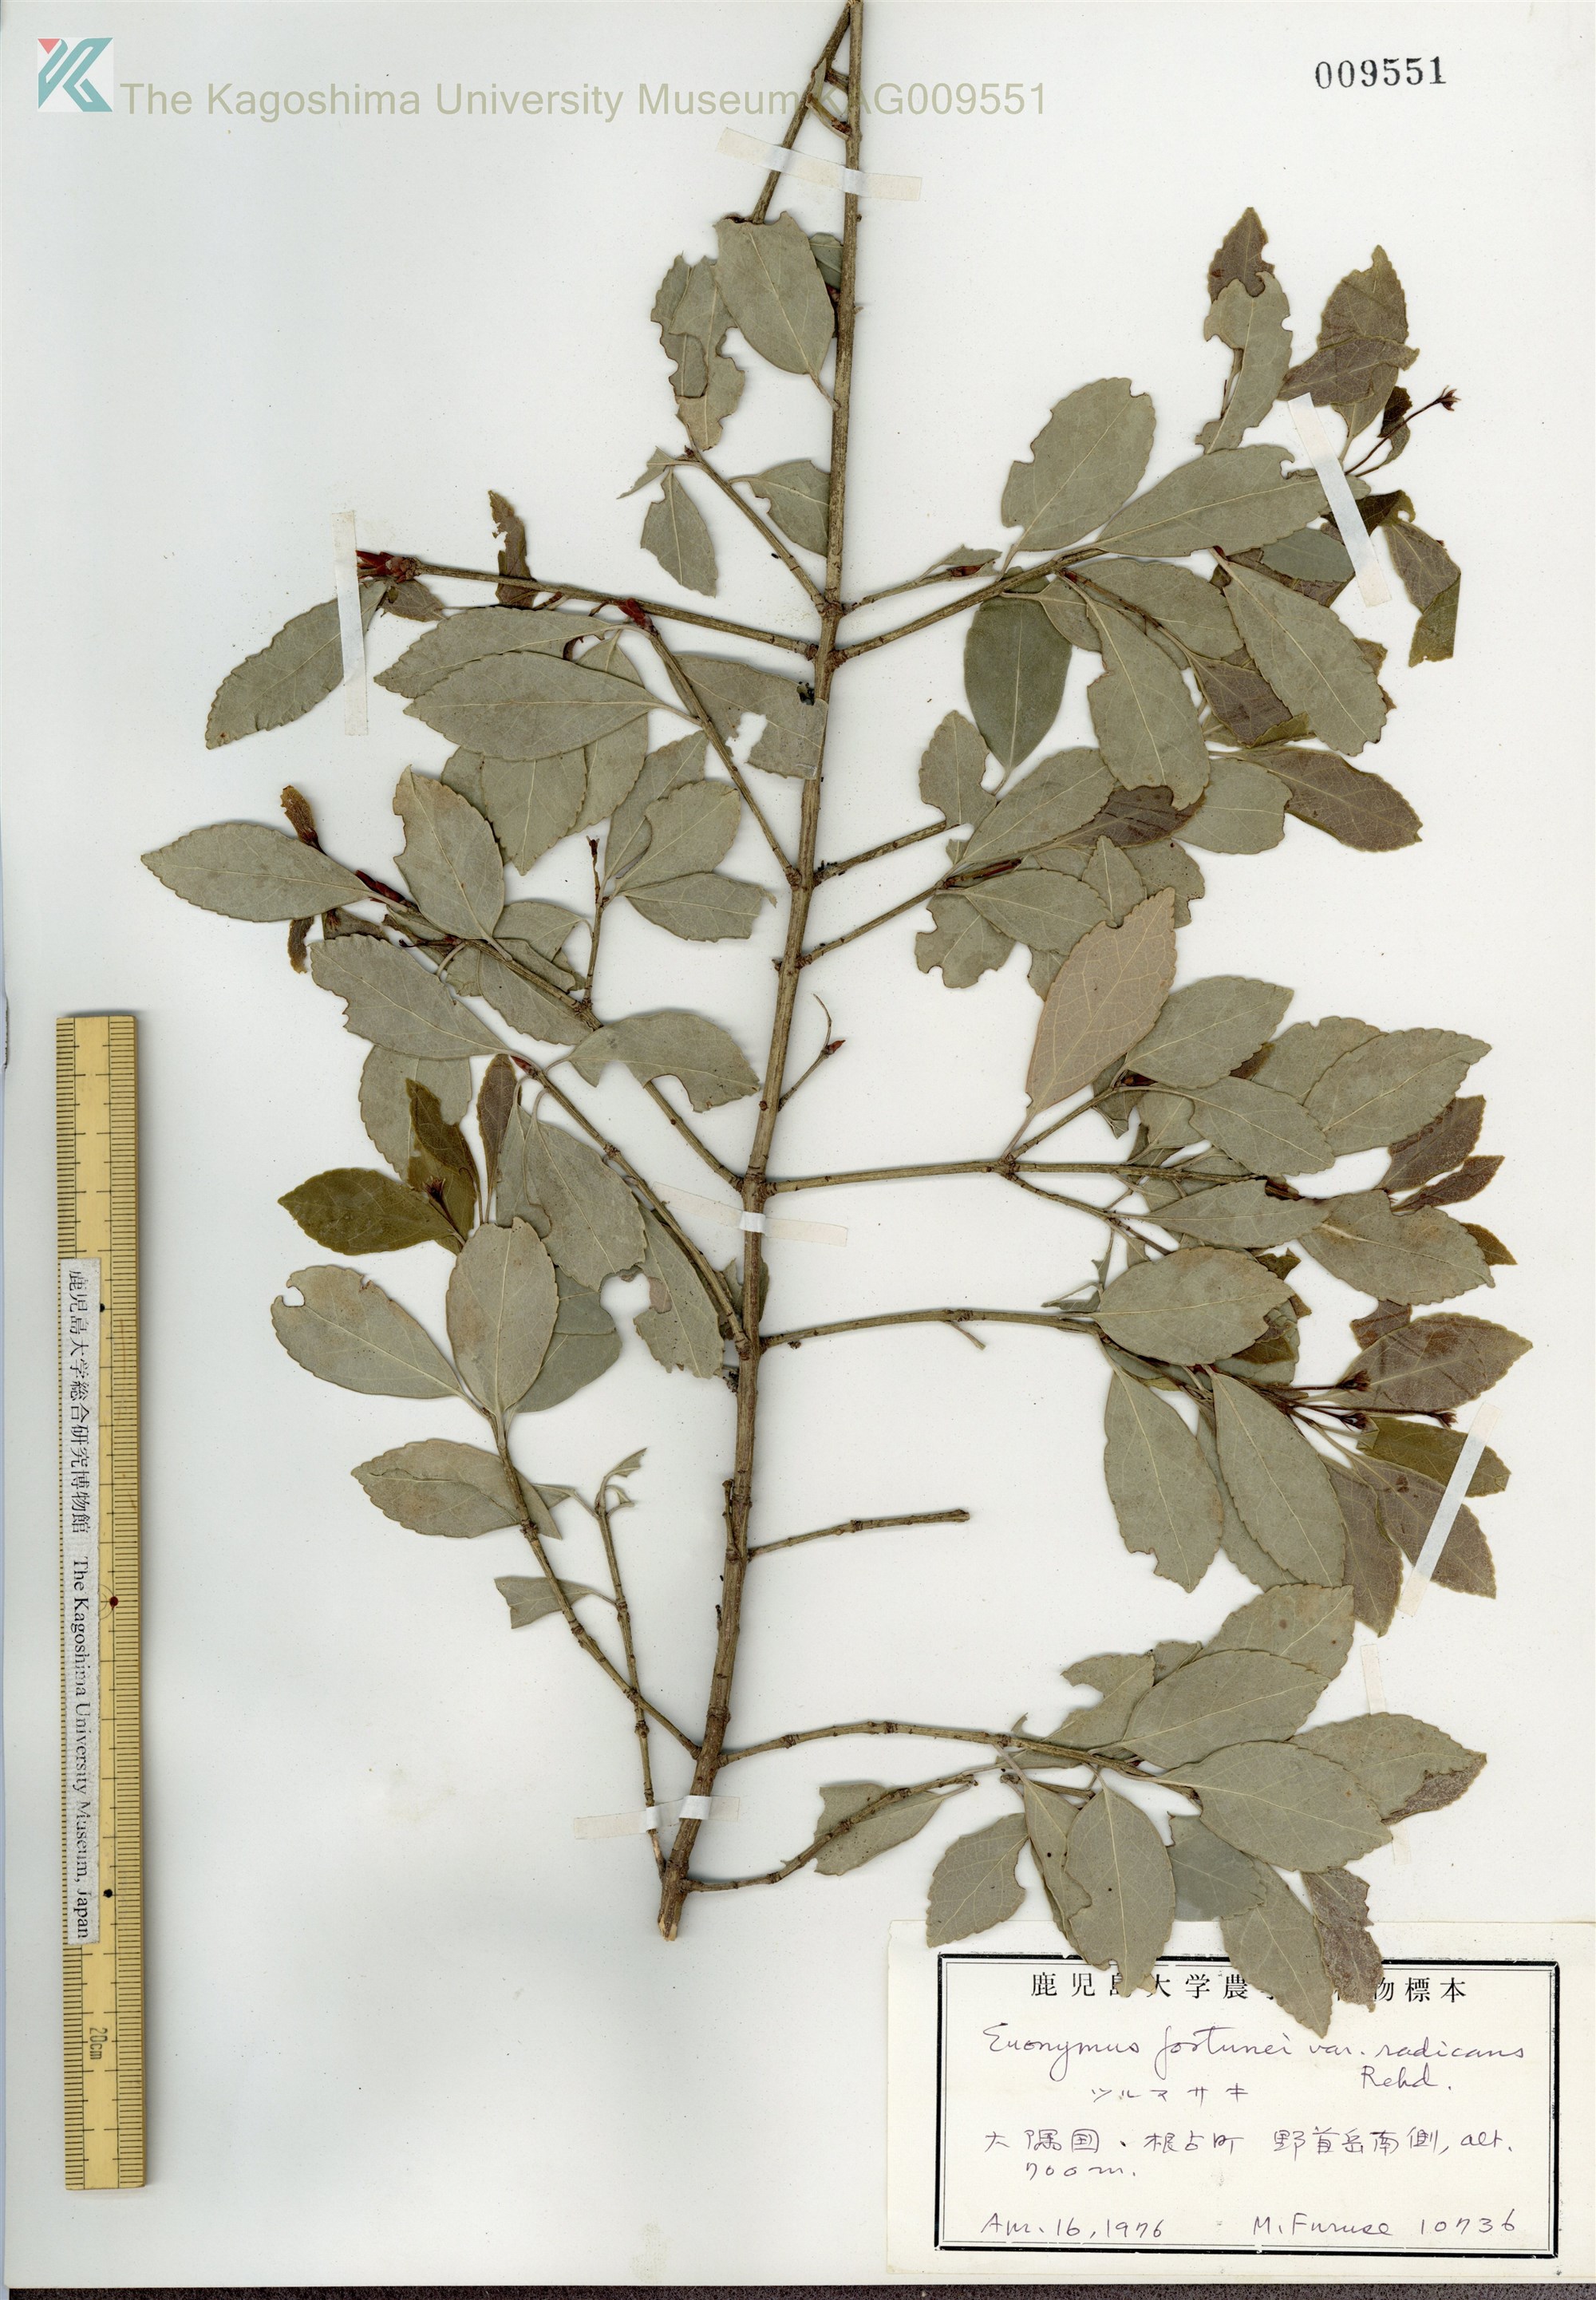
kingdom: Plantae
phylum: Tracheophyta
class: Magnoliopsida
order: Celastrales
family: Celastraceae
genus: Euonymus
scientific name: Euonymus fortunei
